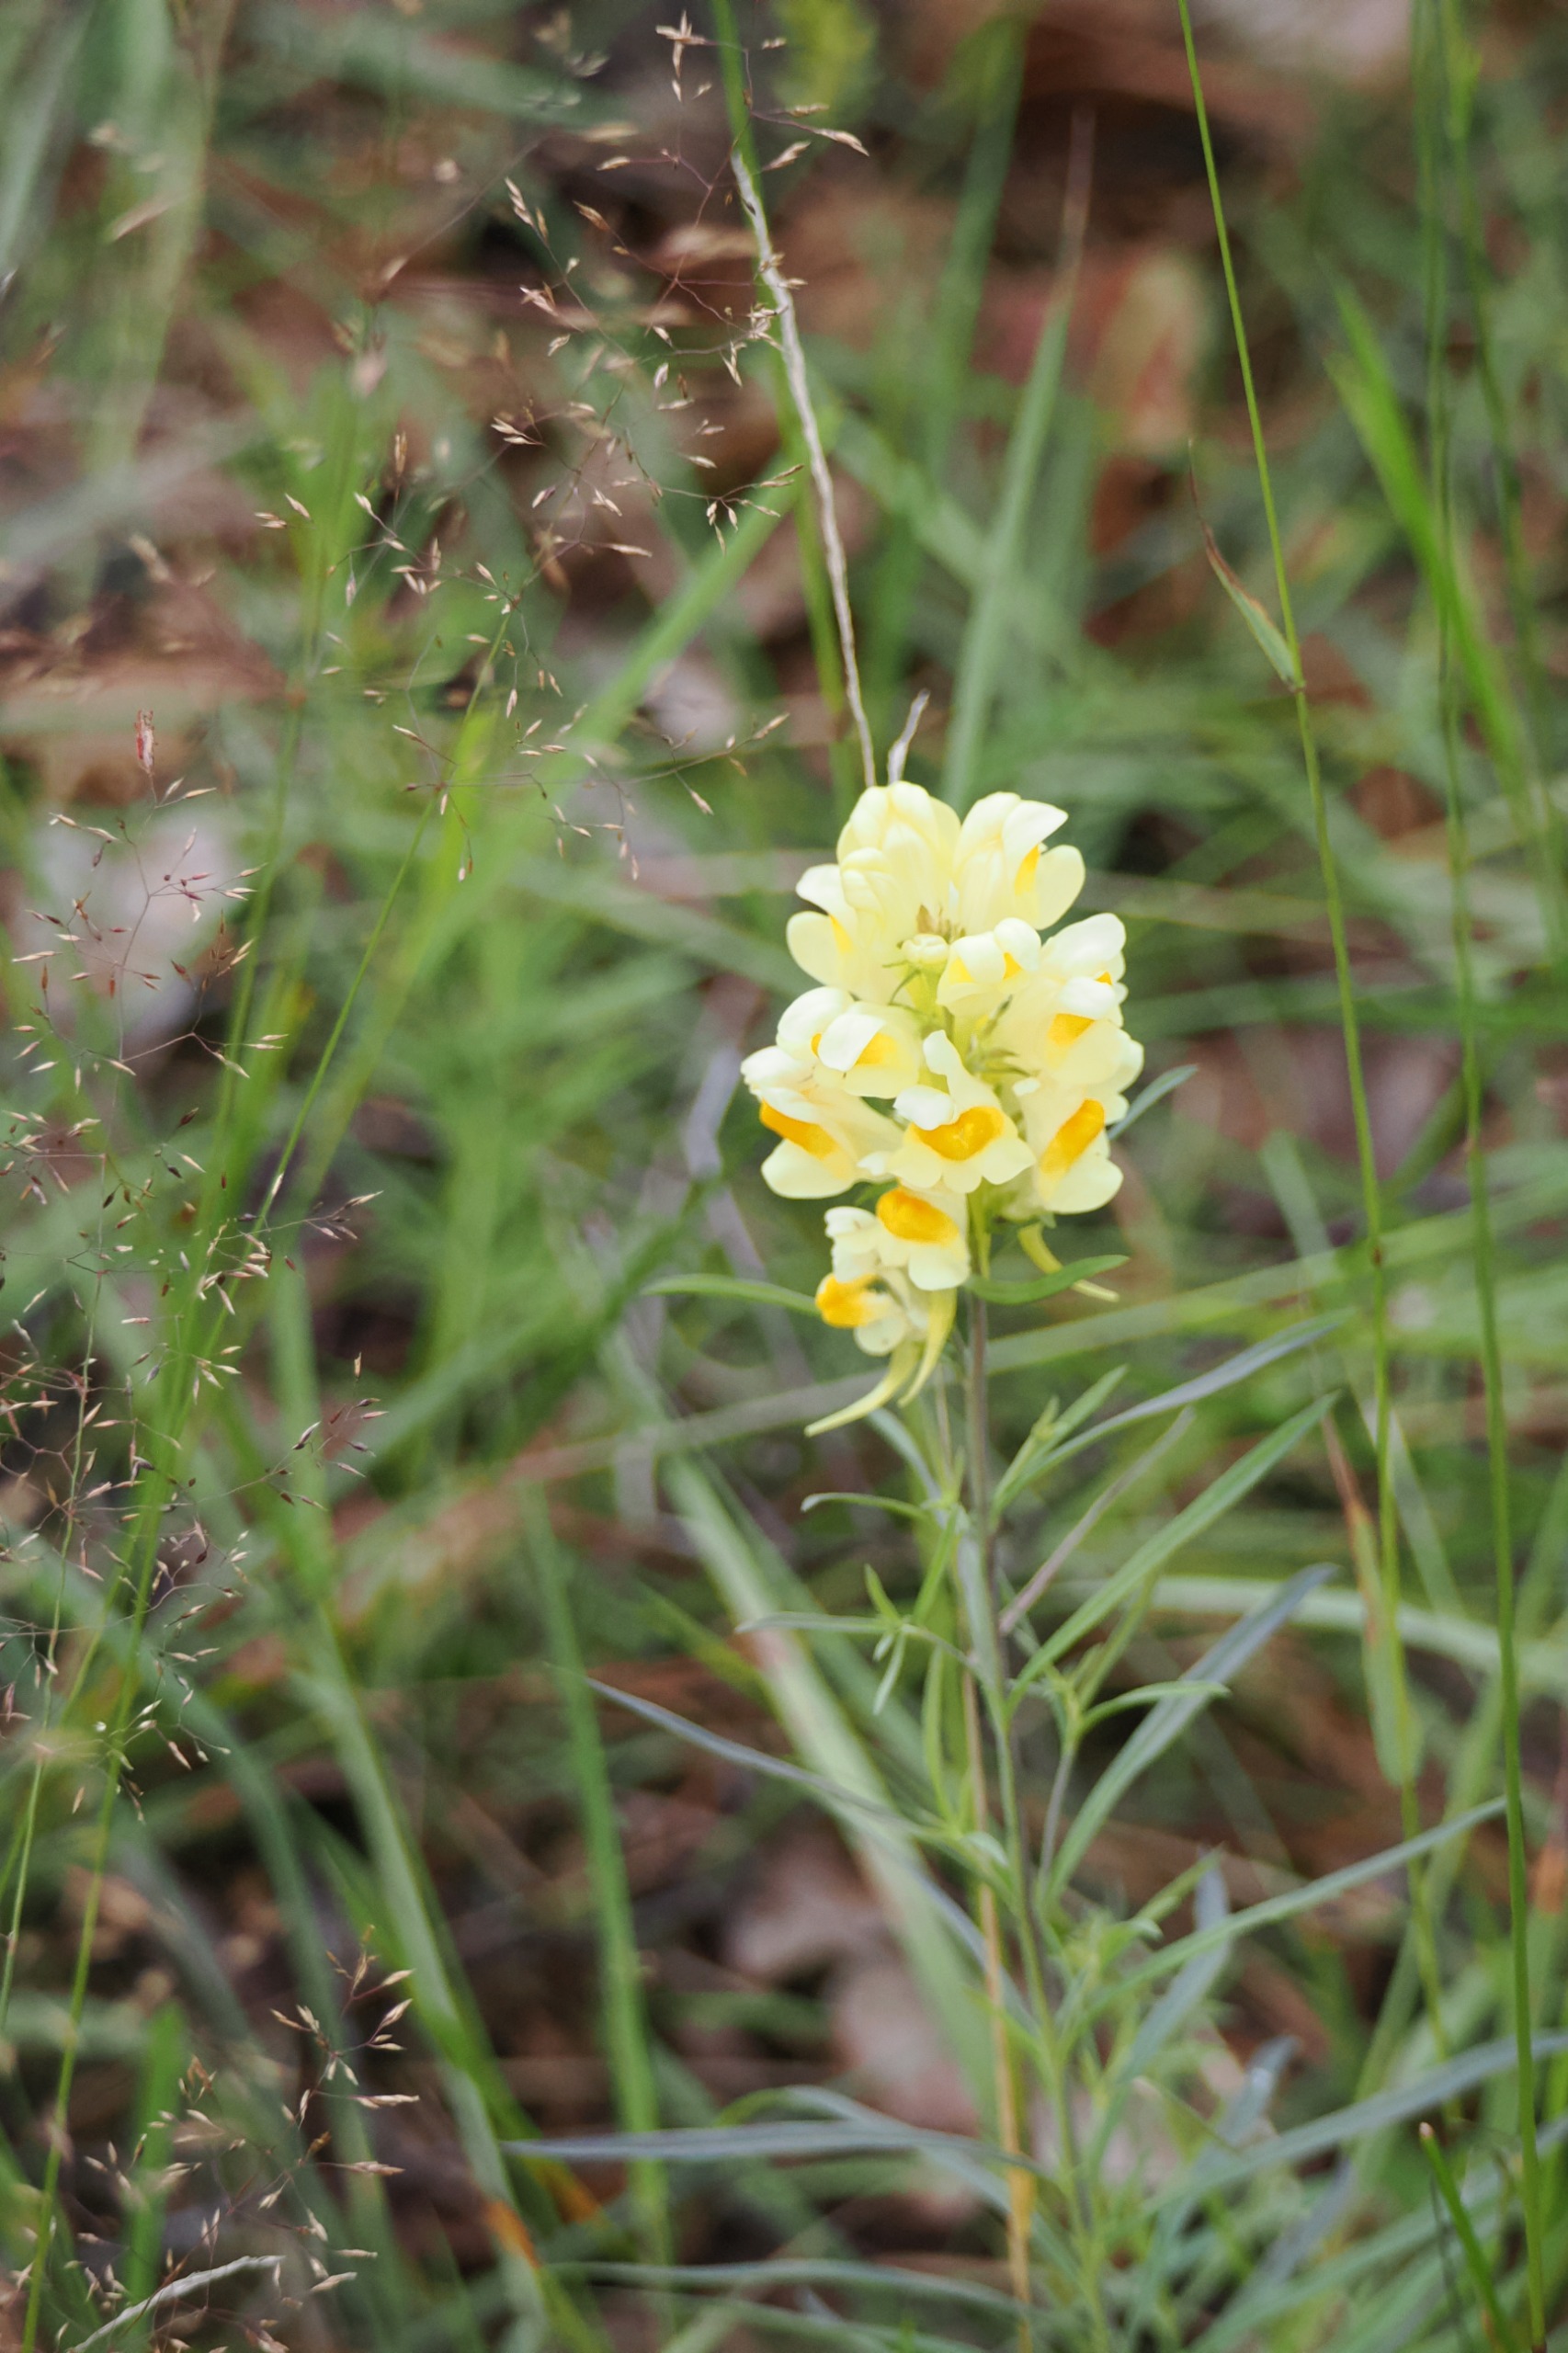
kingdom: Plantae
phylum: Tracheophyta
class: Magnoliopsida
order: Lamiales
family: Plantaginaceae
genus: Linaria
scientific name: Linaria vulgaris
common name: Almindelig torskemund
